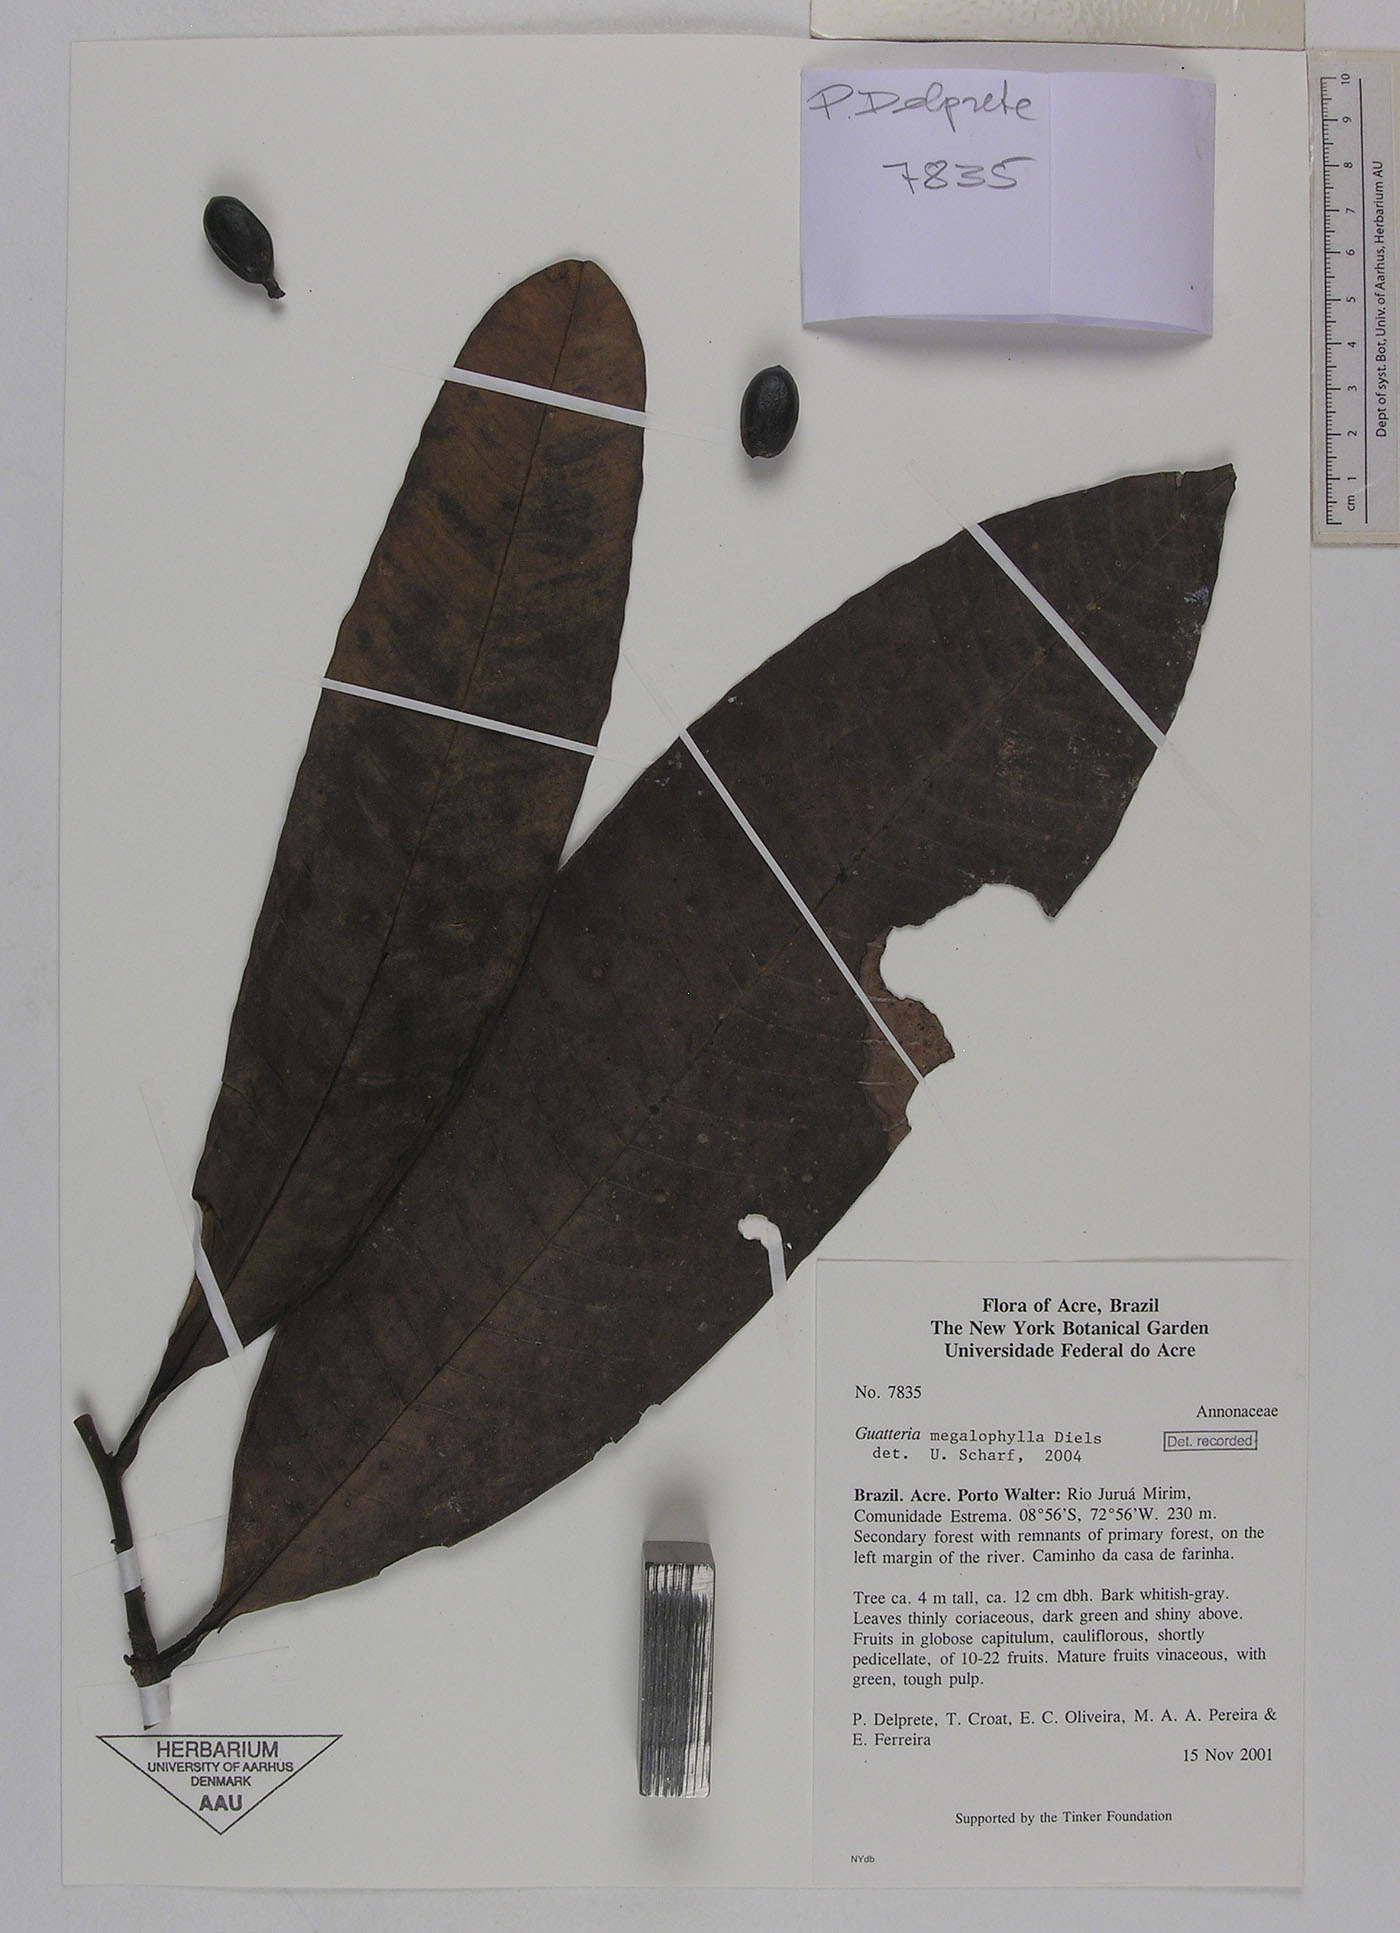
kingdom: Plantae
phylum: Tracheophyta
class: Magnoliopsida
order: Magnoliales
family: Annonaceae
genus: Guatteria
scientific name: Guatteria megalophylla
